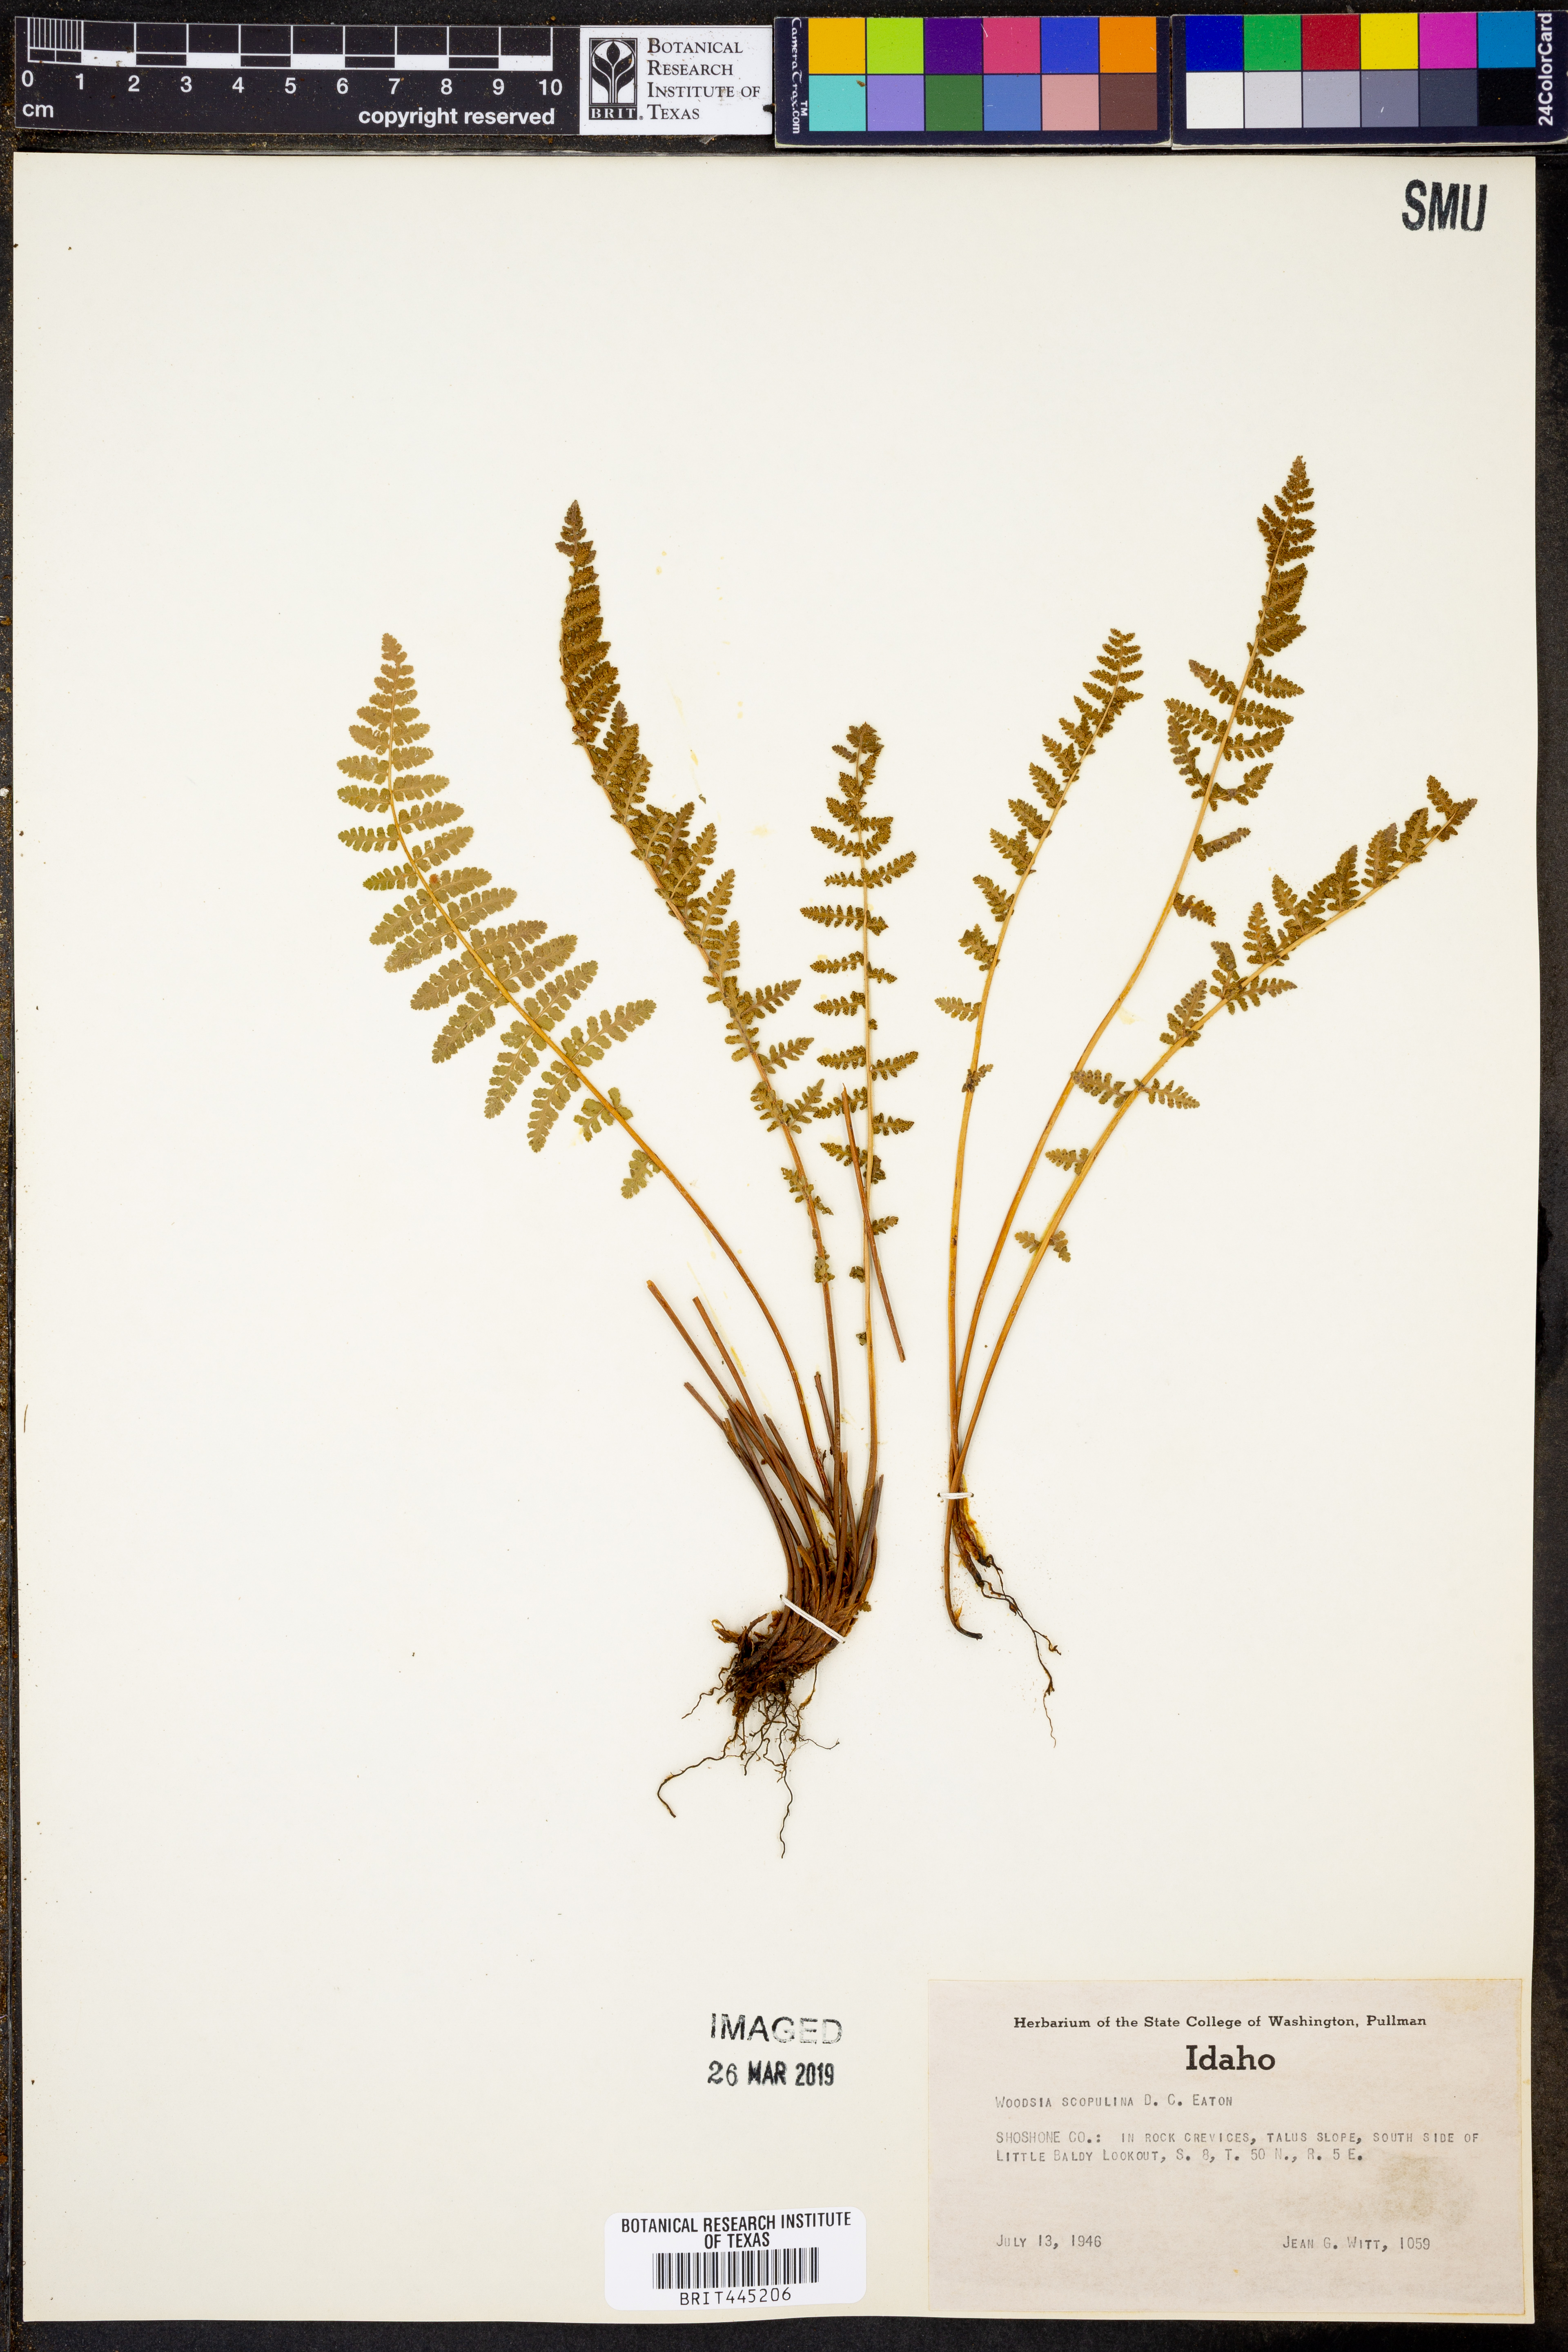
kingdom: Plantae
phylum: Tracheophyta
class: Polypodiopsida
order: Polypodiales
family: Woodsiaceae
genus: Physematium
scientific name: Physematium scopulinum
